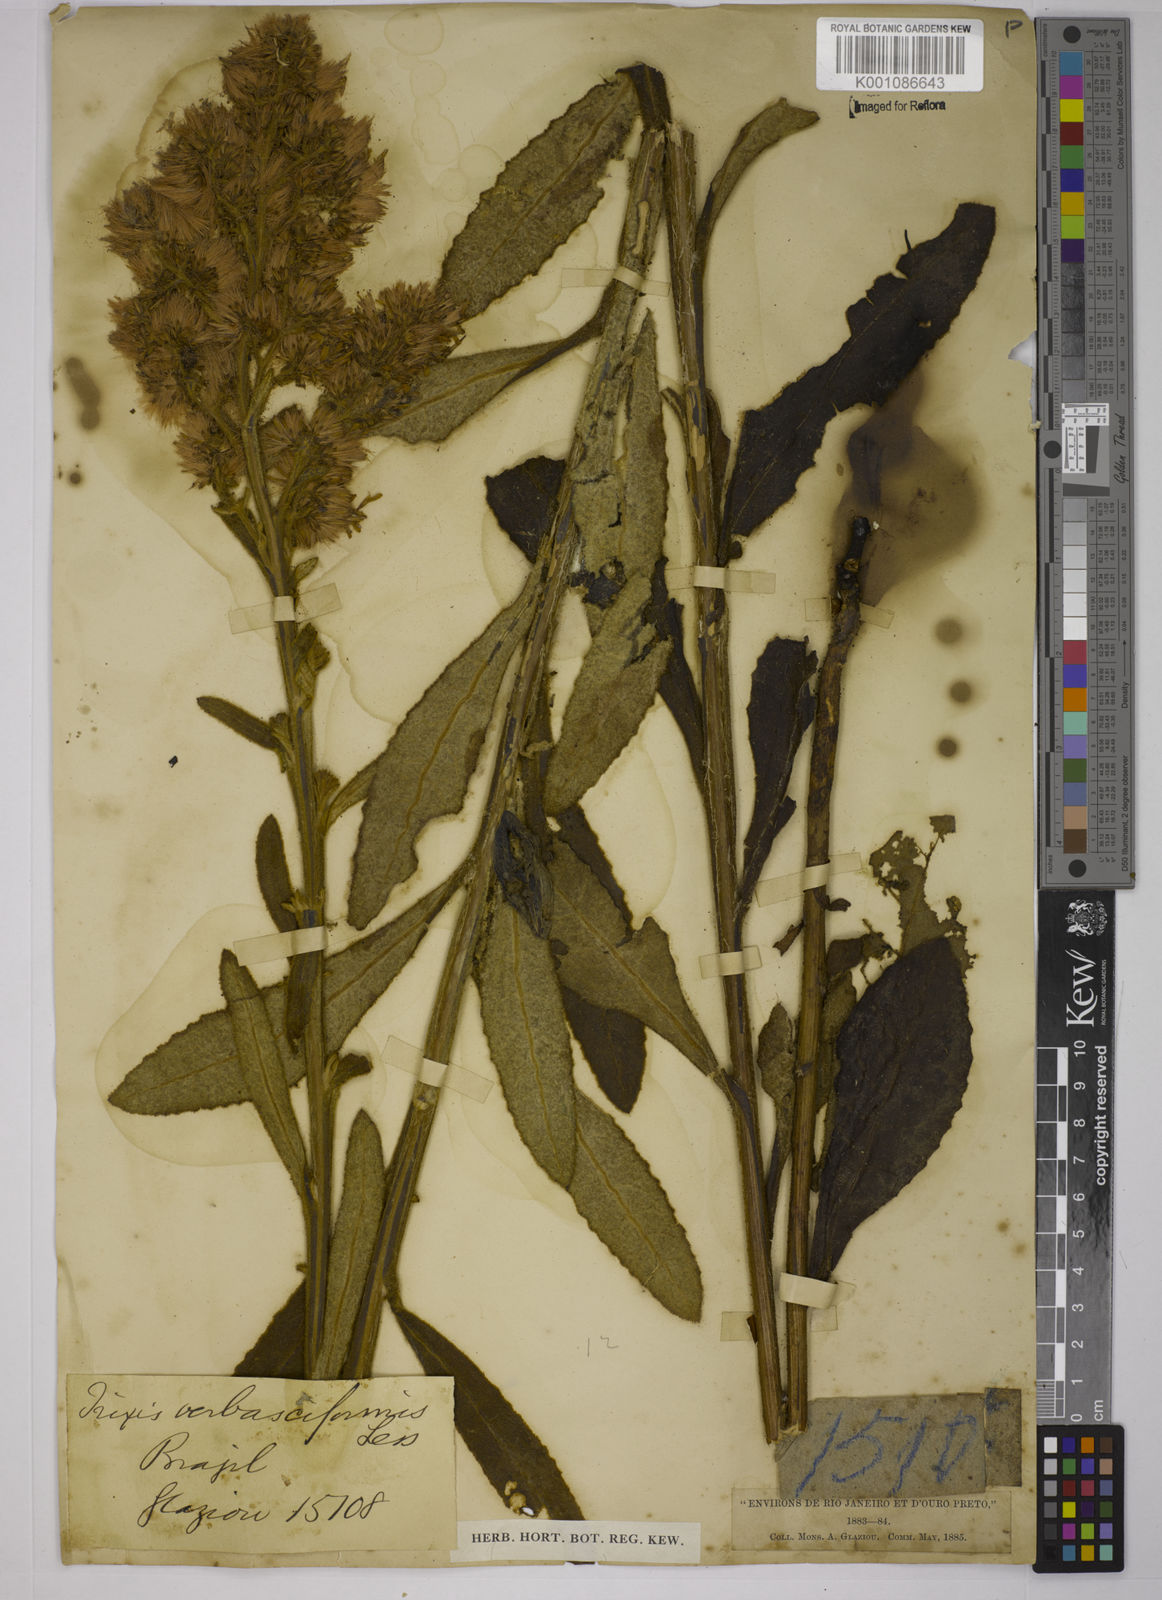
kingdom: Plantae
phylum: Tracheophyta
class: Magnoliopsida
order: Asterales
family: Asteraceae
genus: Trixis
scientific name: Trixis nobilis
